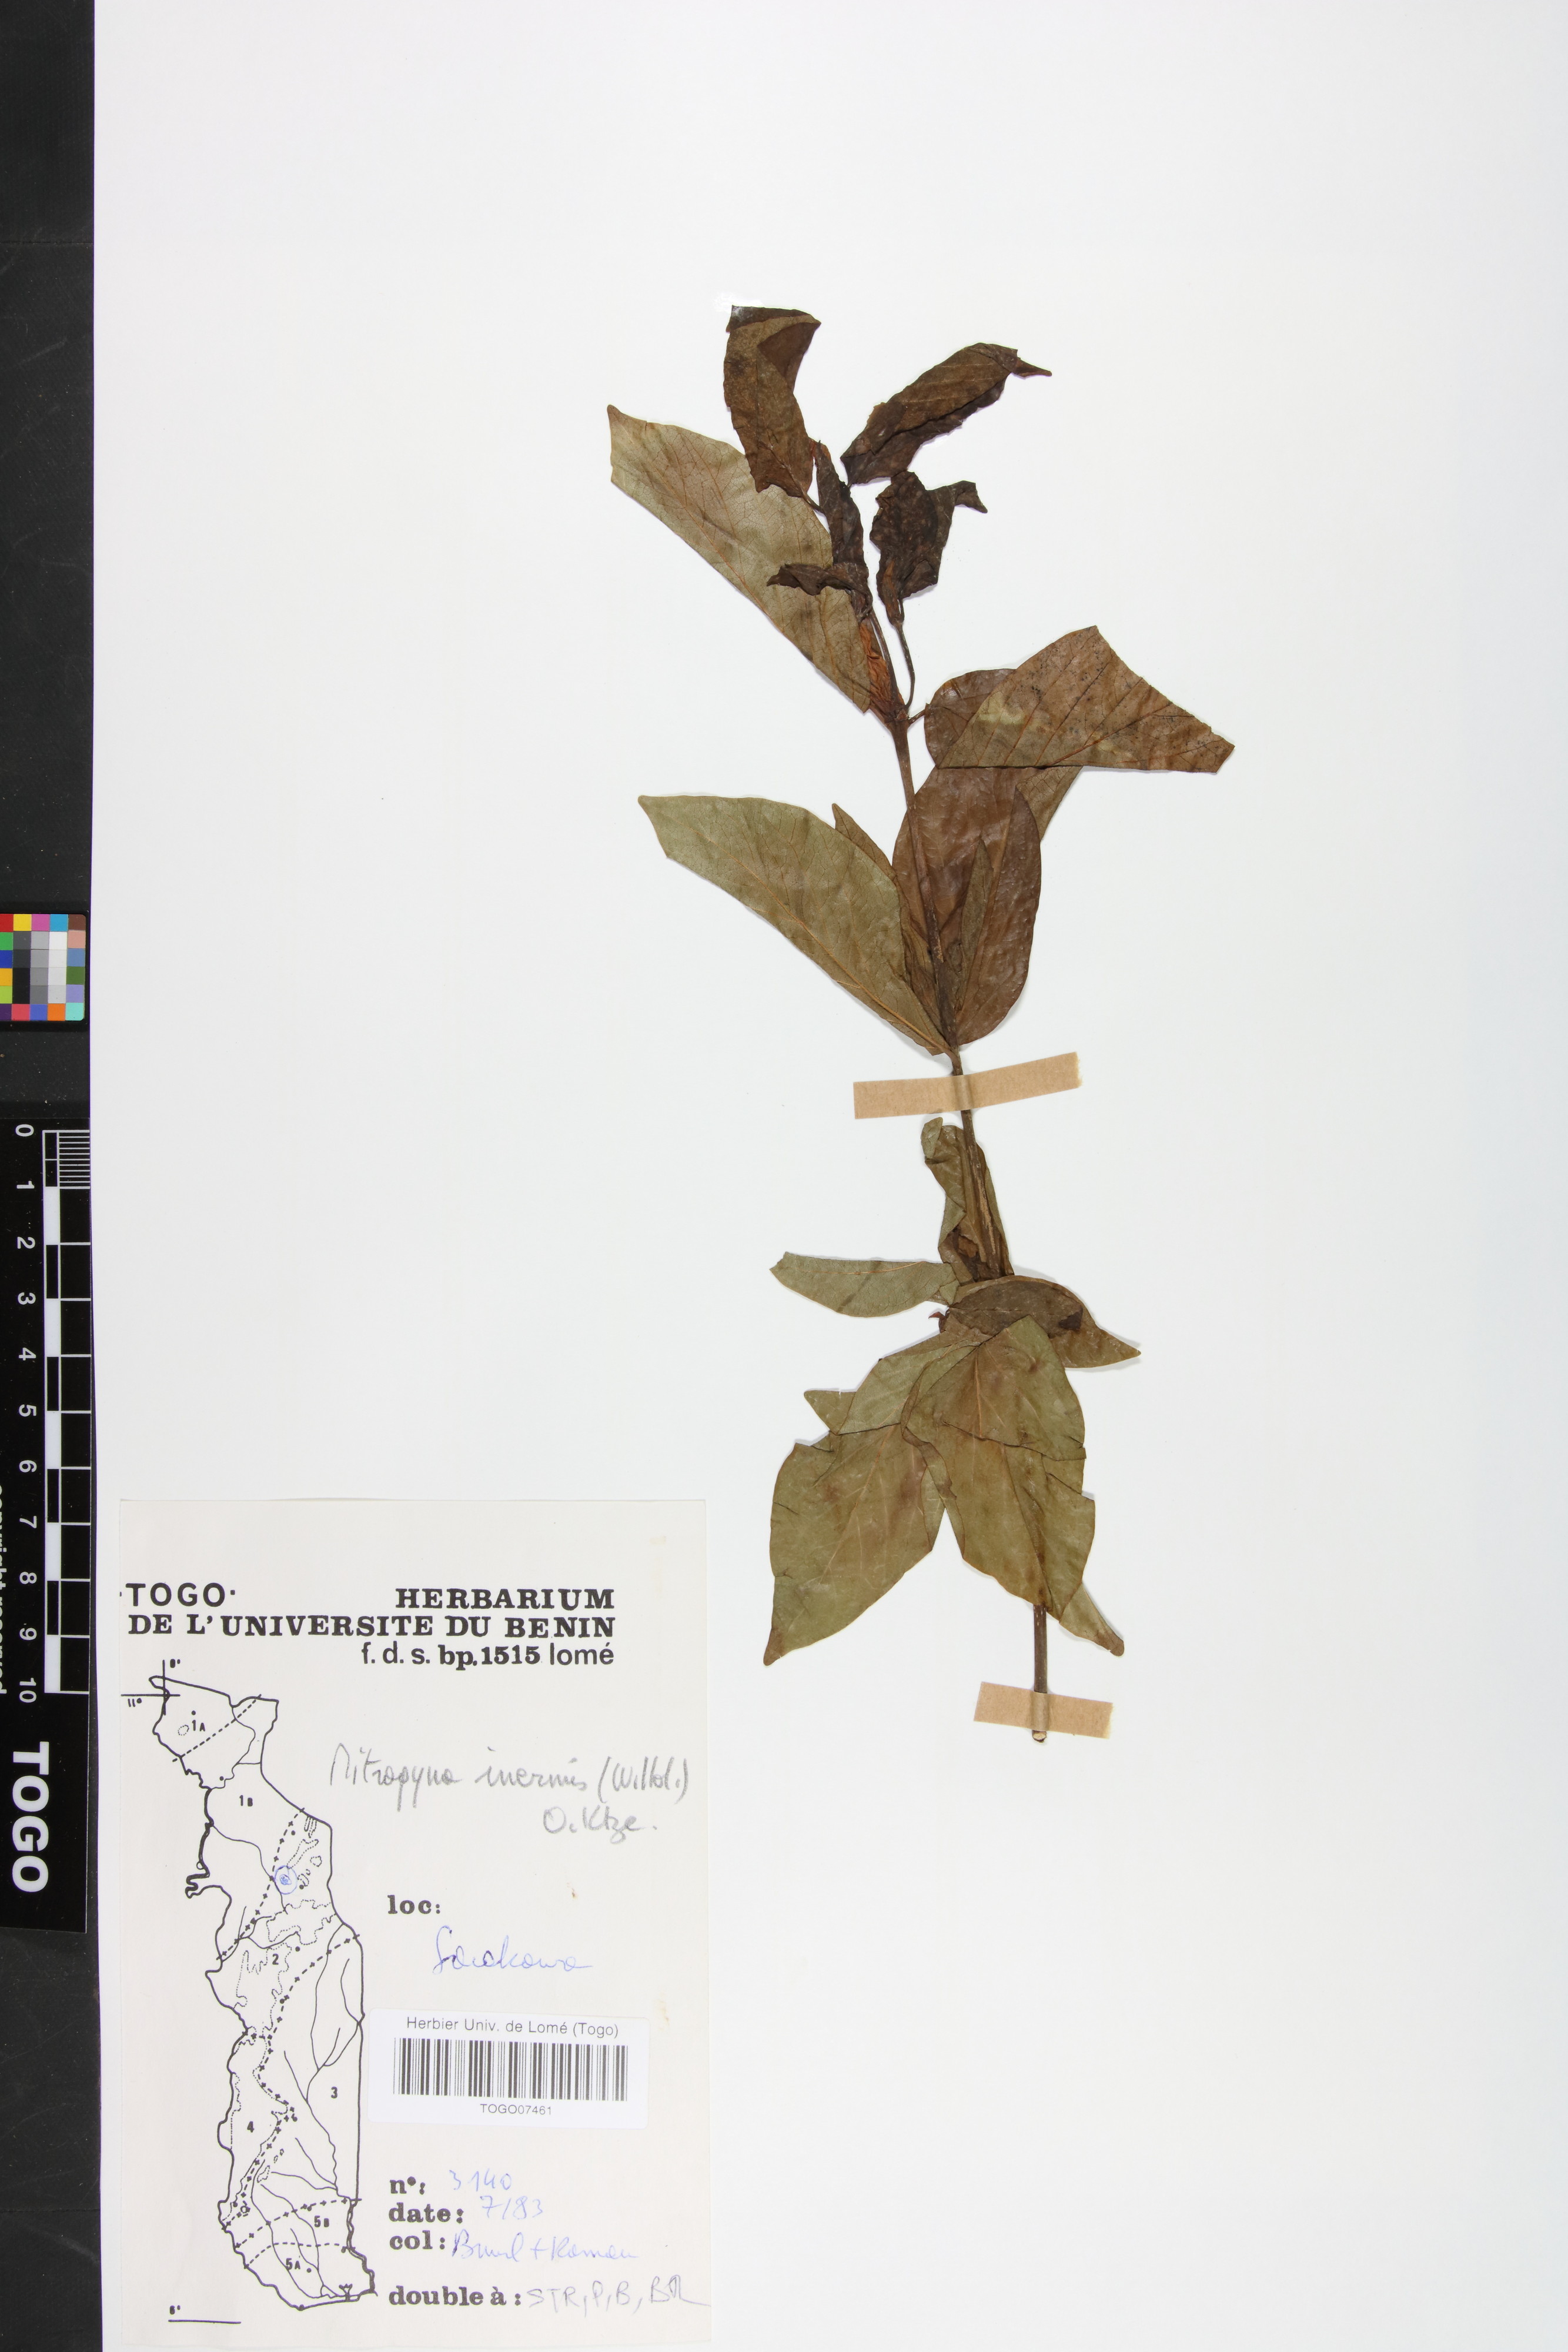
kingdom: Plantae
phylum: Tracheophyta
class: Magnoliopsida
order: Gentianales
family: Rubiaceae
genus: Mitragyna
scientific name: Mitragyna inermis
